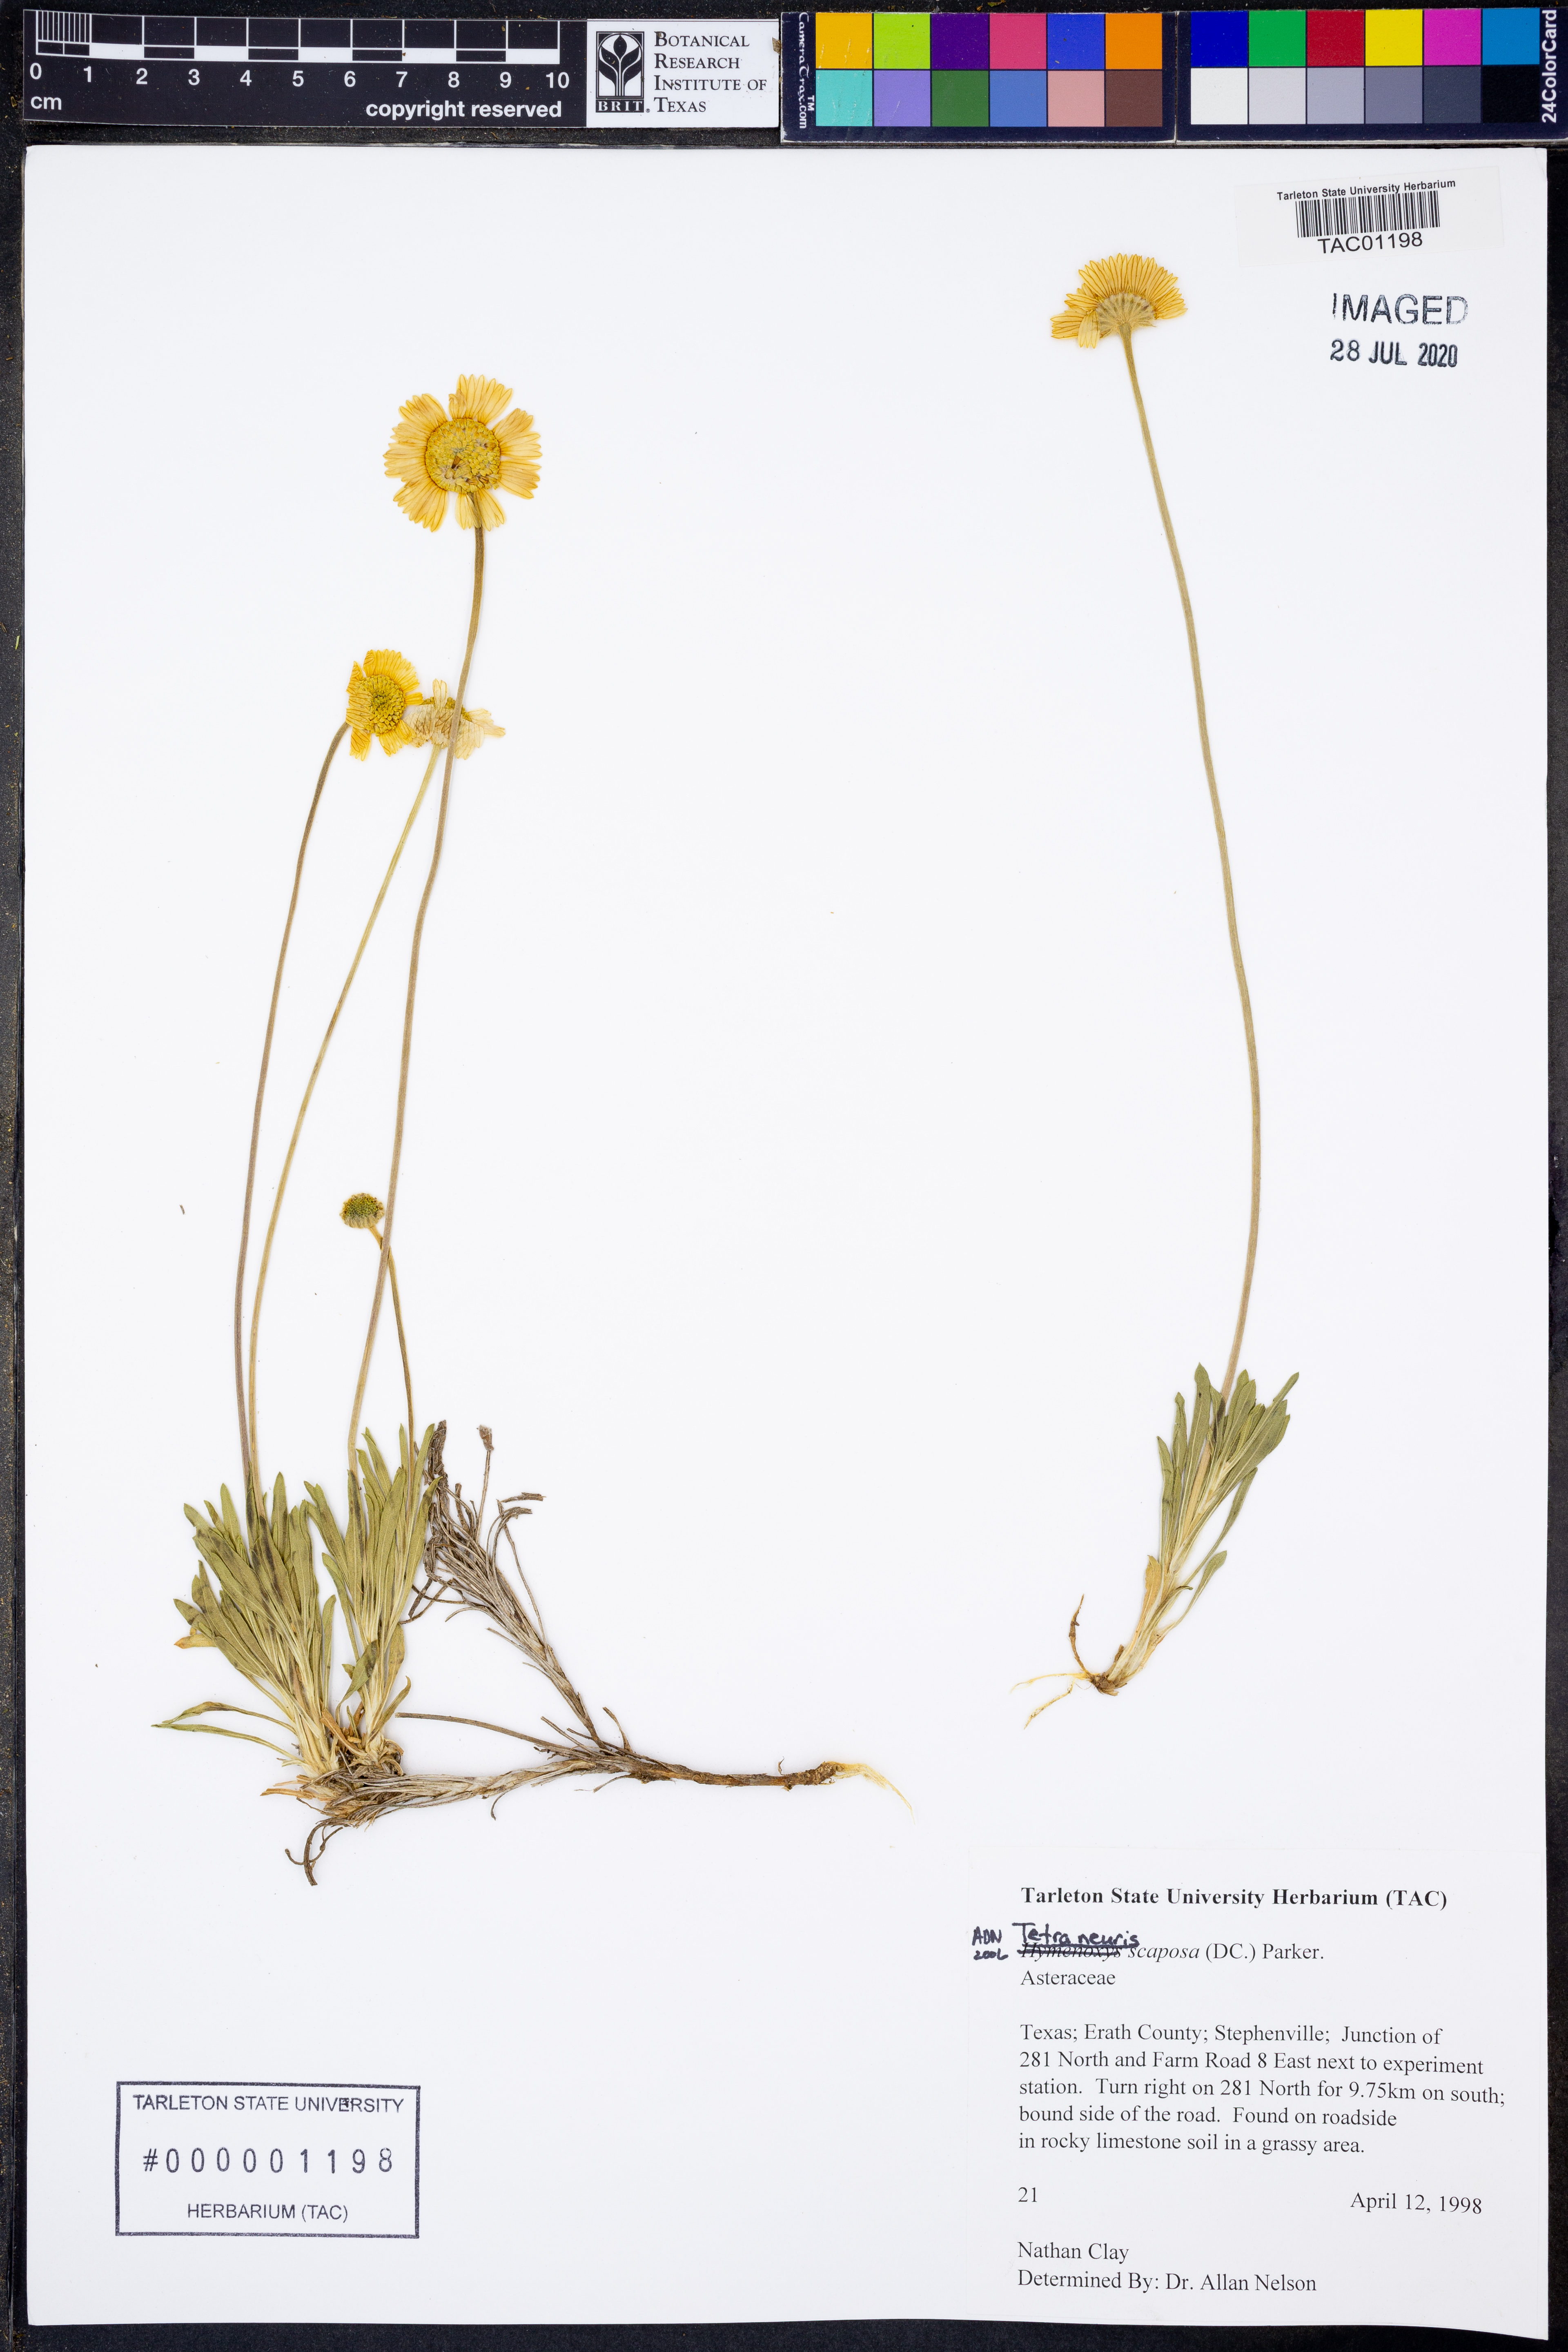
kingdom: Plantae
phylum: Tracheophyta
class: Magnoliopsida
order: Asterales
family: Asteraceae
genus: Tetraneuris
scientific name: Tetraneuris scaposa
